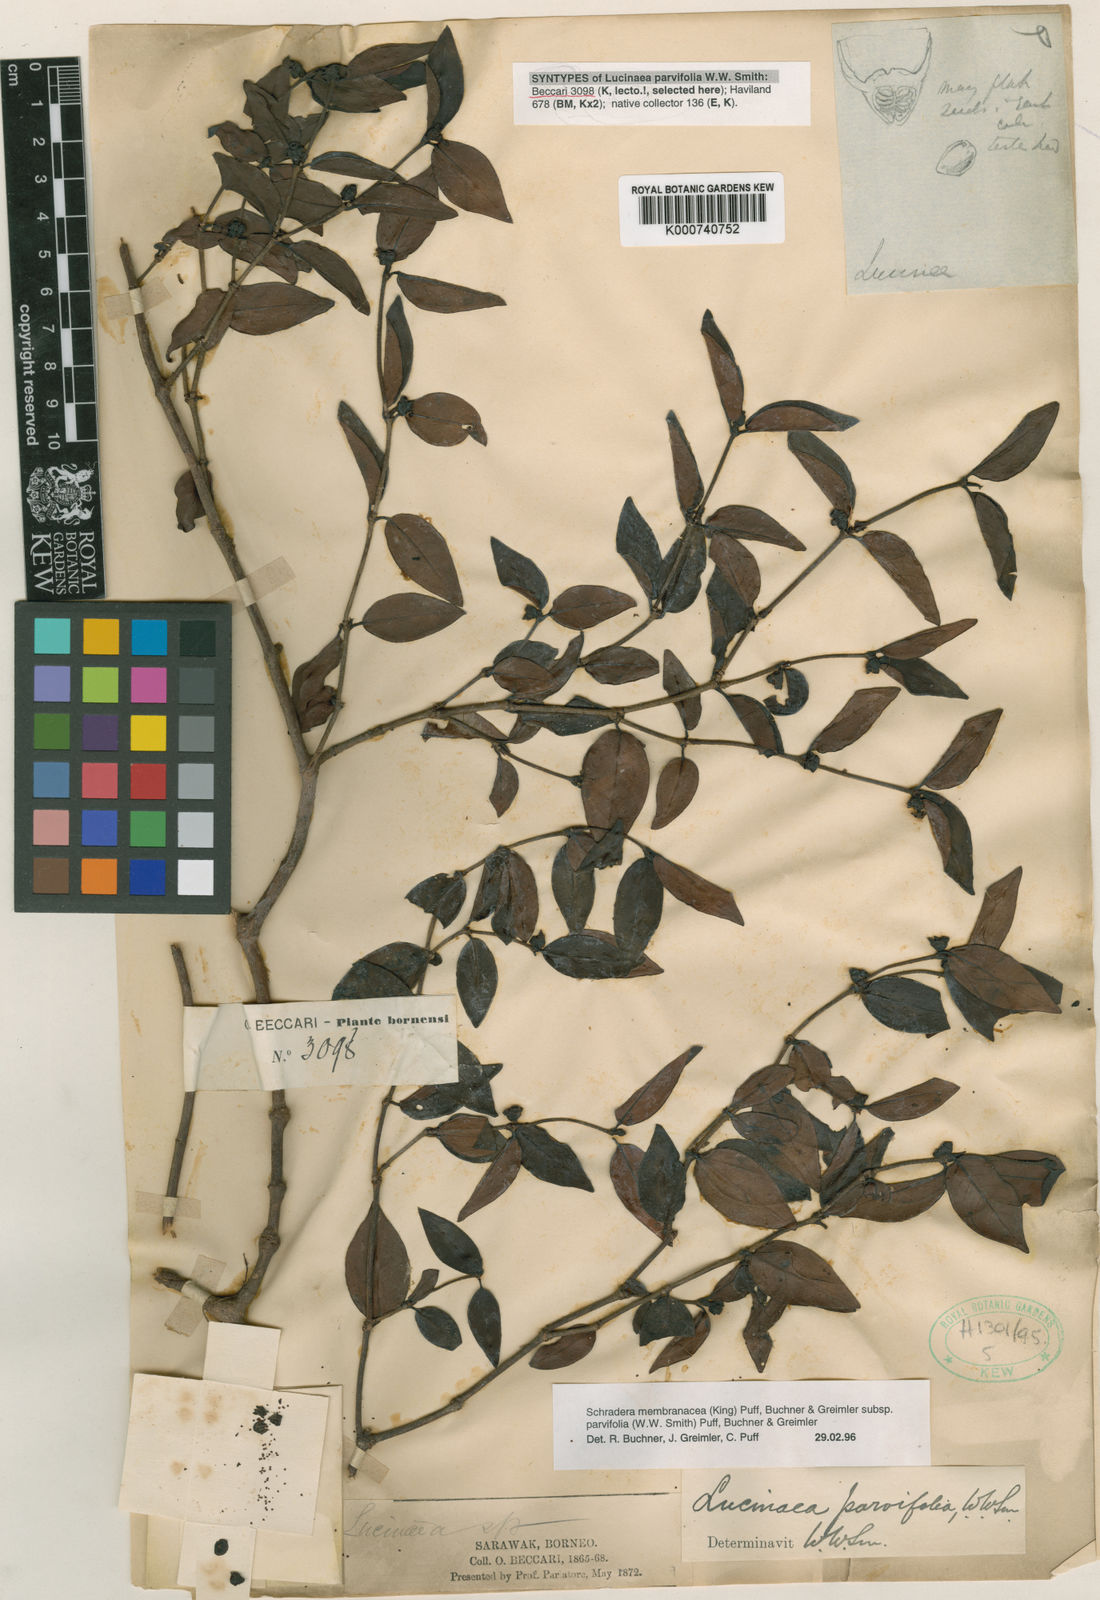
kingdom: Plantae
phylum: Tracheophyta
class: Magnoliopsida
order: Gentianales
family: Rubiaceae
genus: Schradera
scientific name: Schradera
